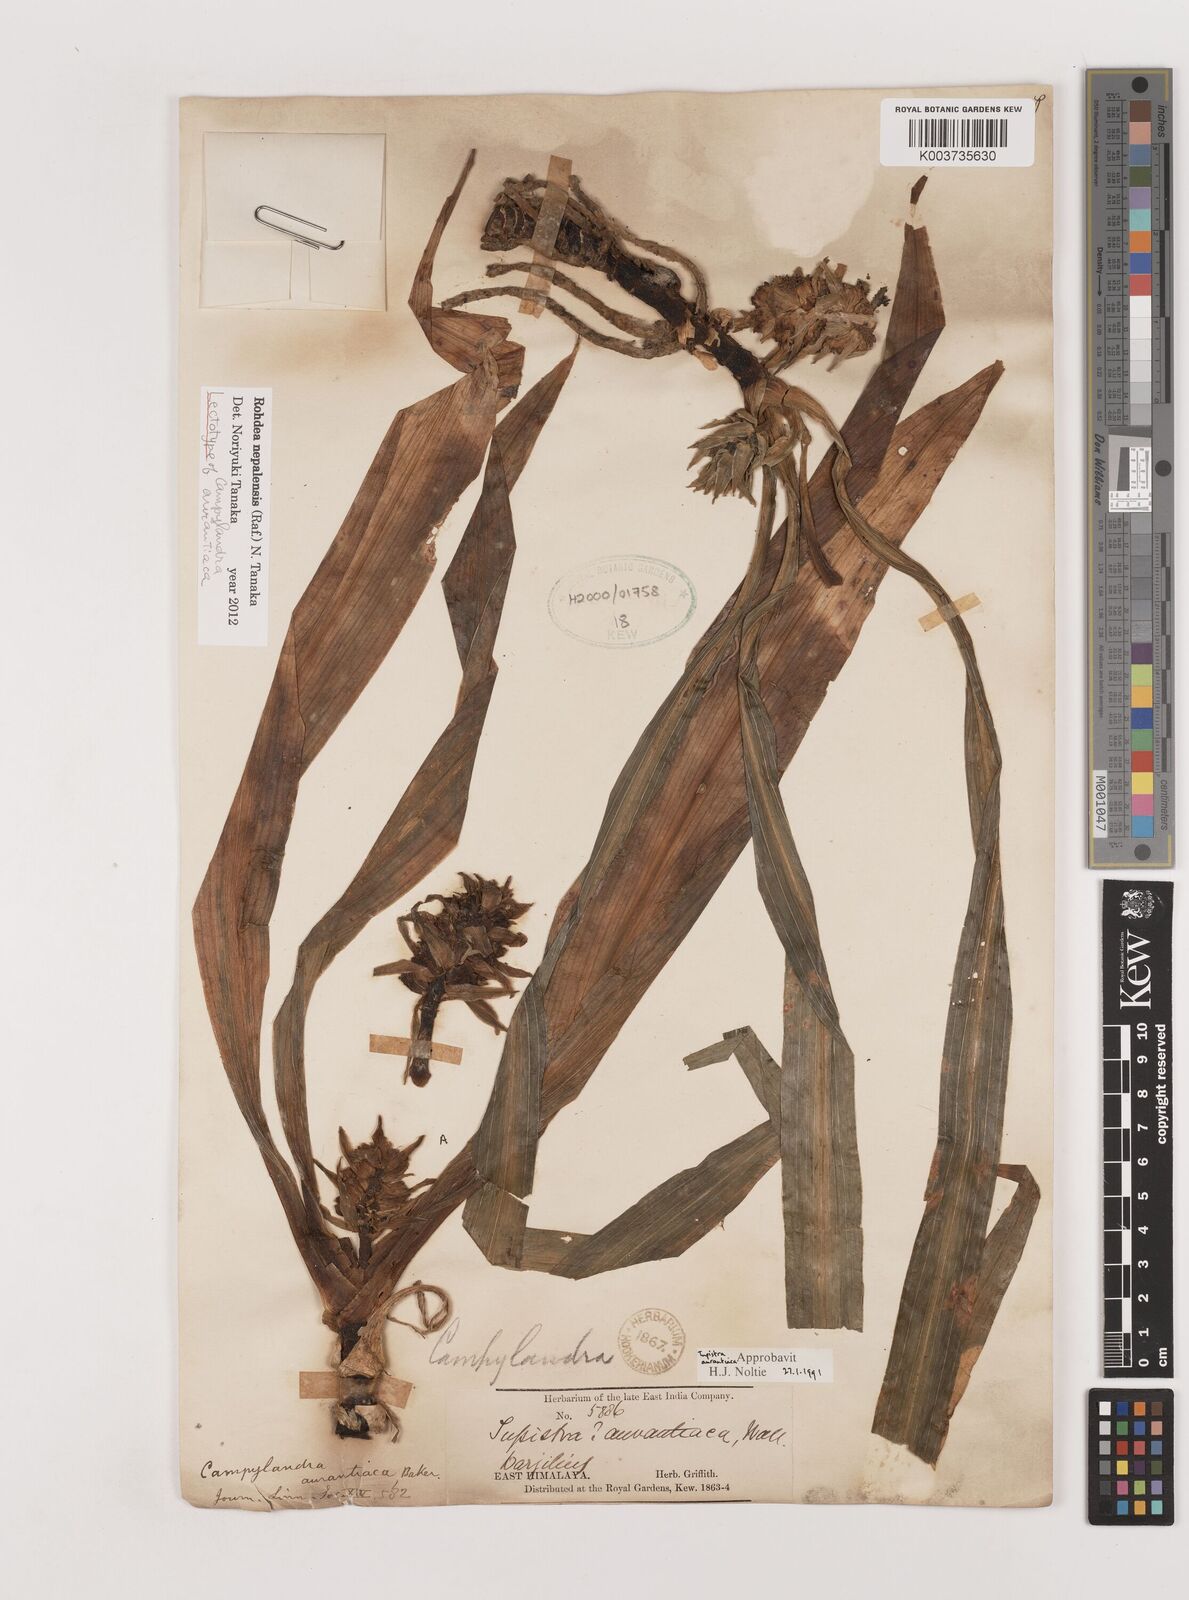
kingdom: Plantae
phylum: Tracheophyta
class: Liliopsida
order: Asparagales
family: Asparagaceae
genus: Rohdea
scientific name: Rohdea nepalensis
